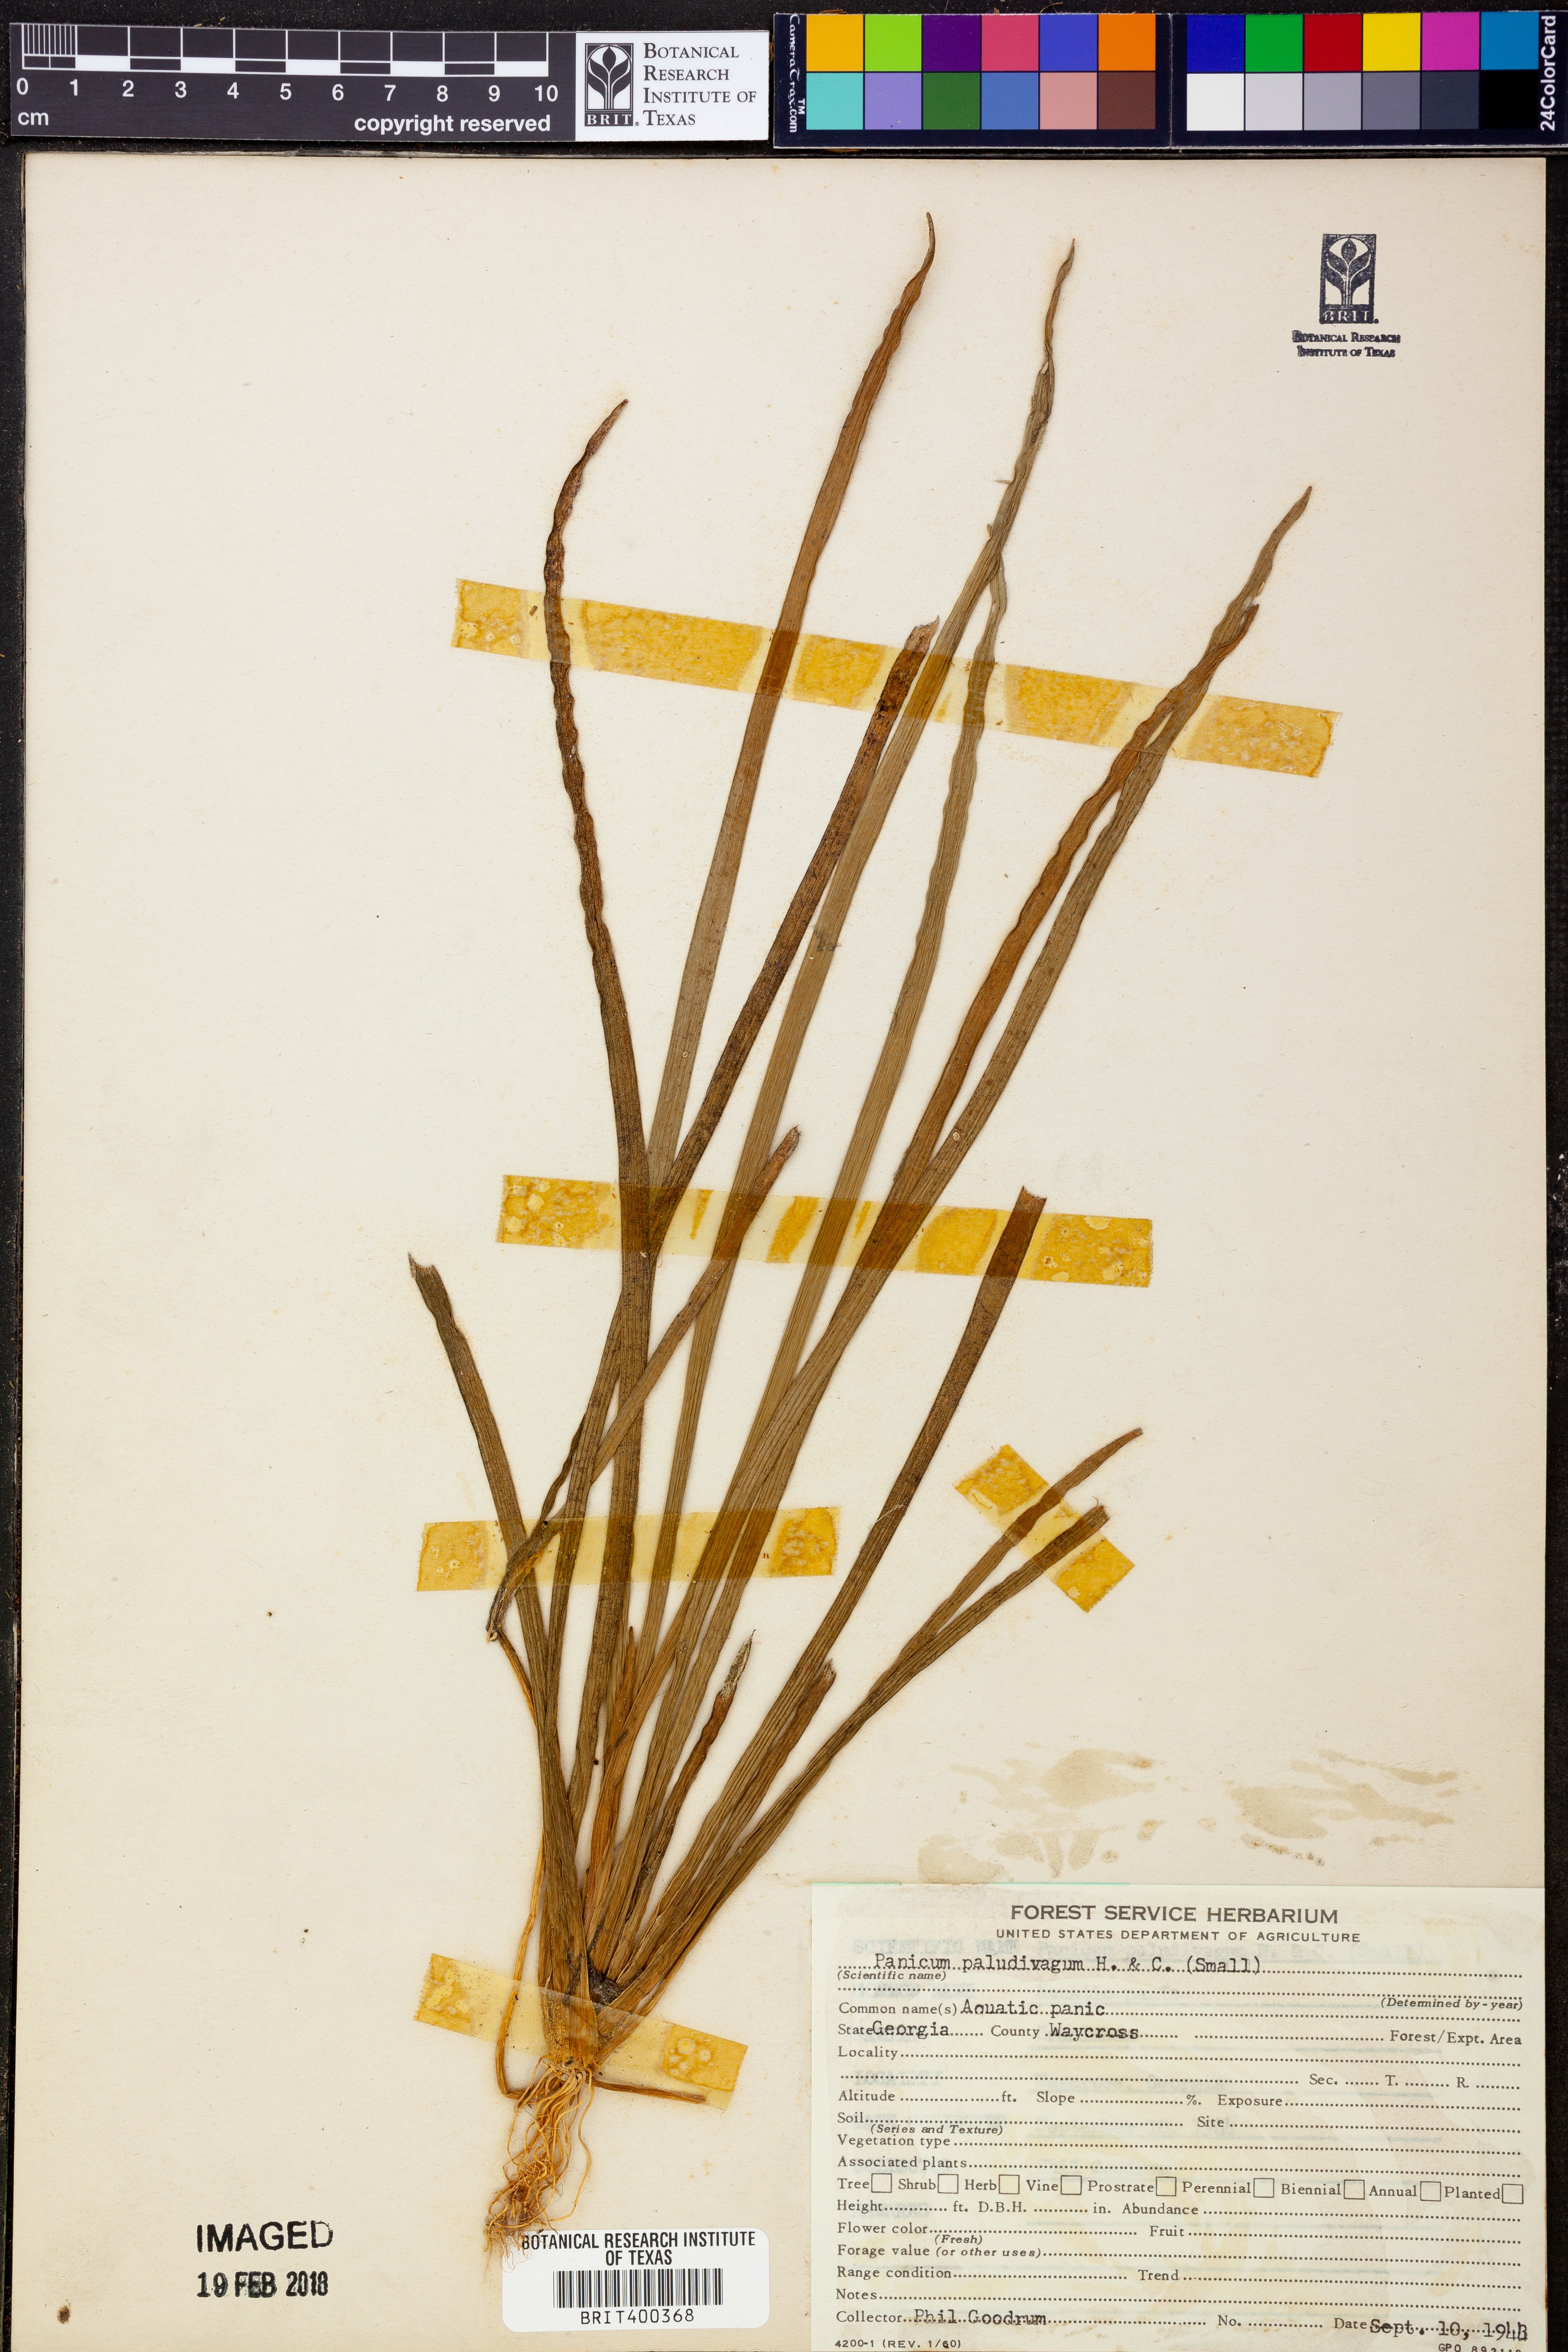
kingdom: Plantae
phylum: Tracheophyta
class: Liliopsida
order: Poales
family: Poaceae
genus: Setaria
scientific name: Setaria geminata
